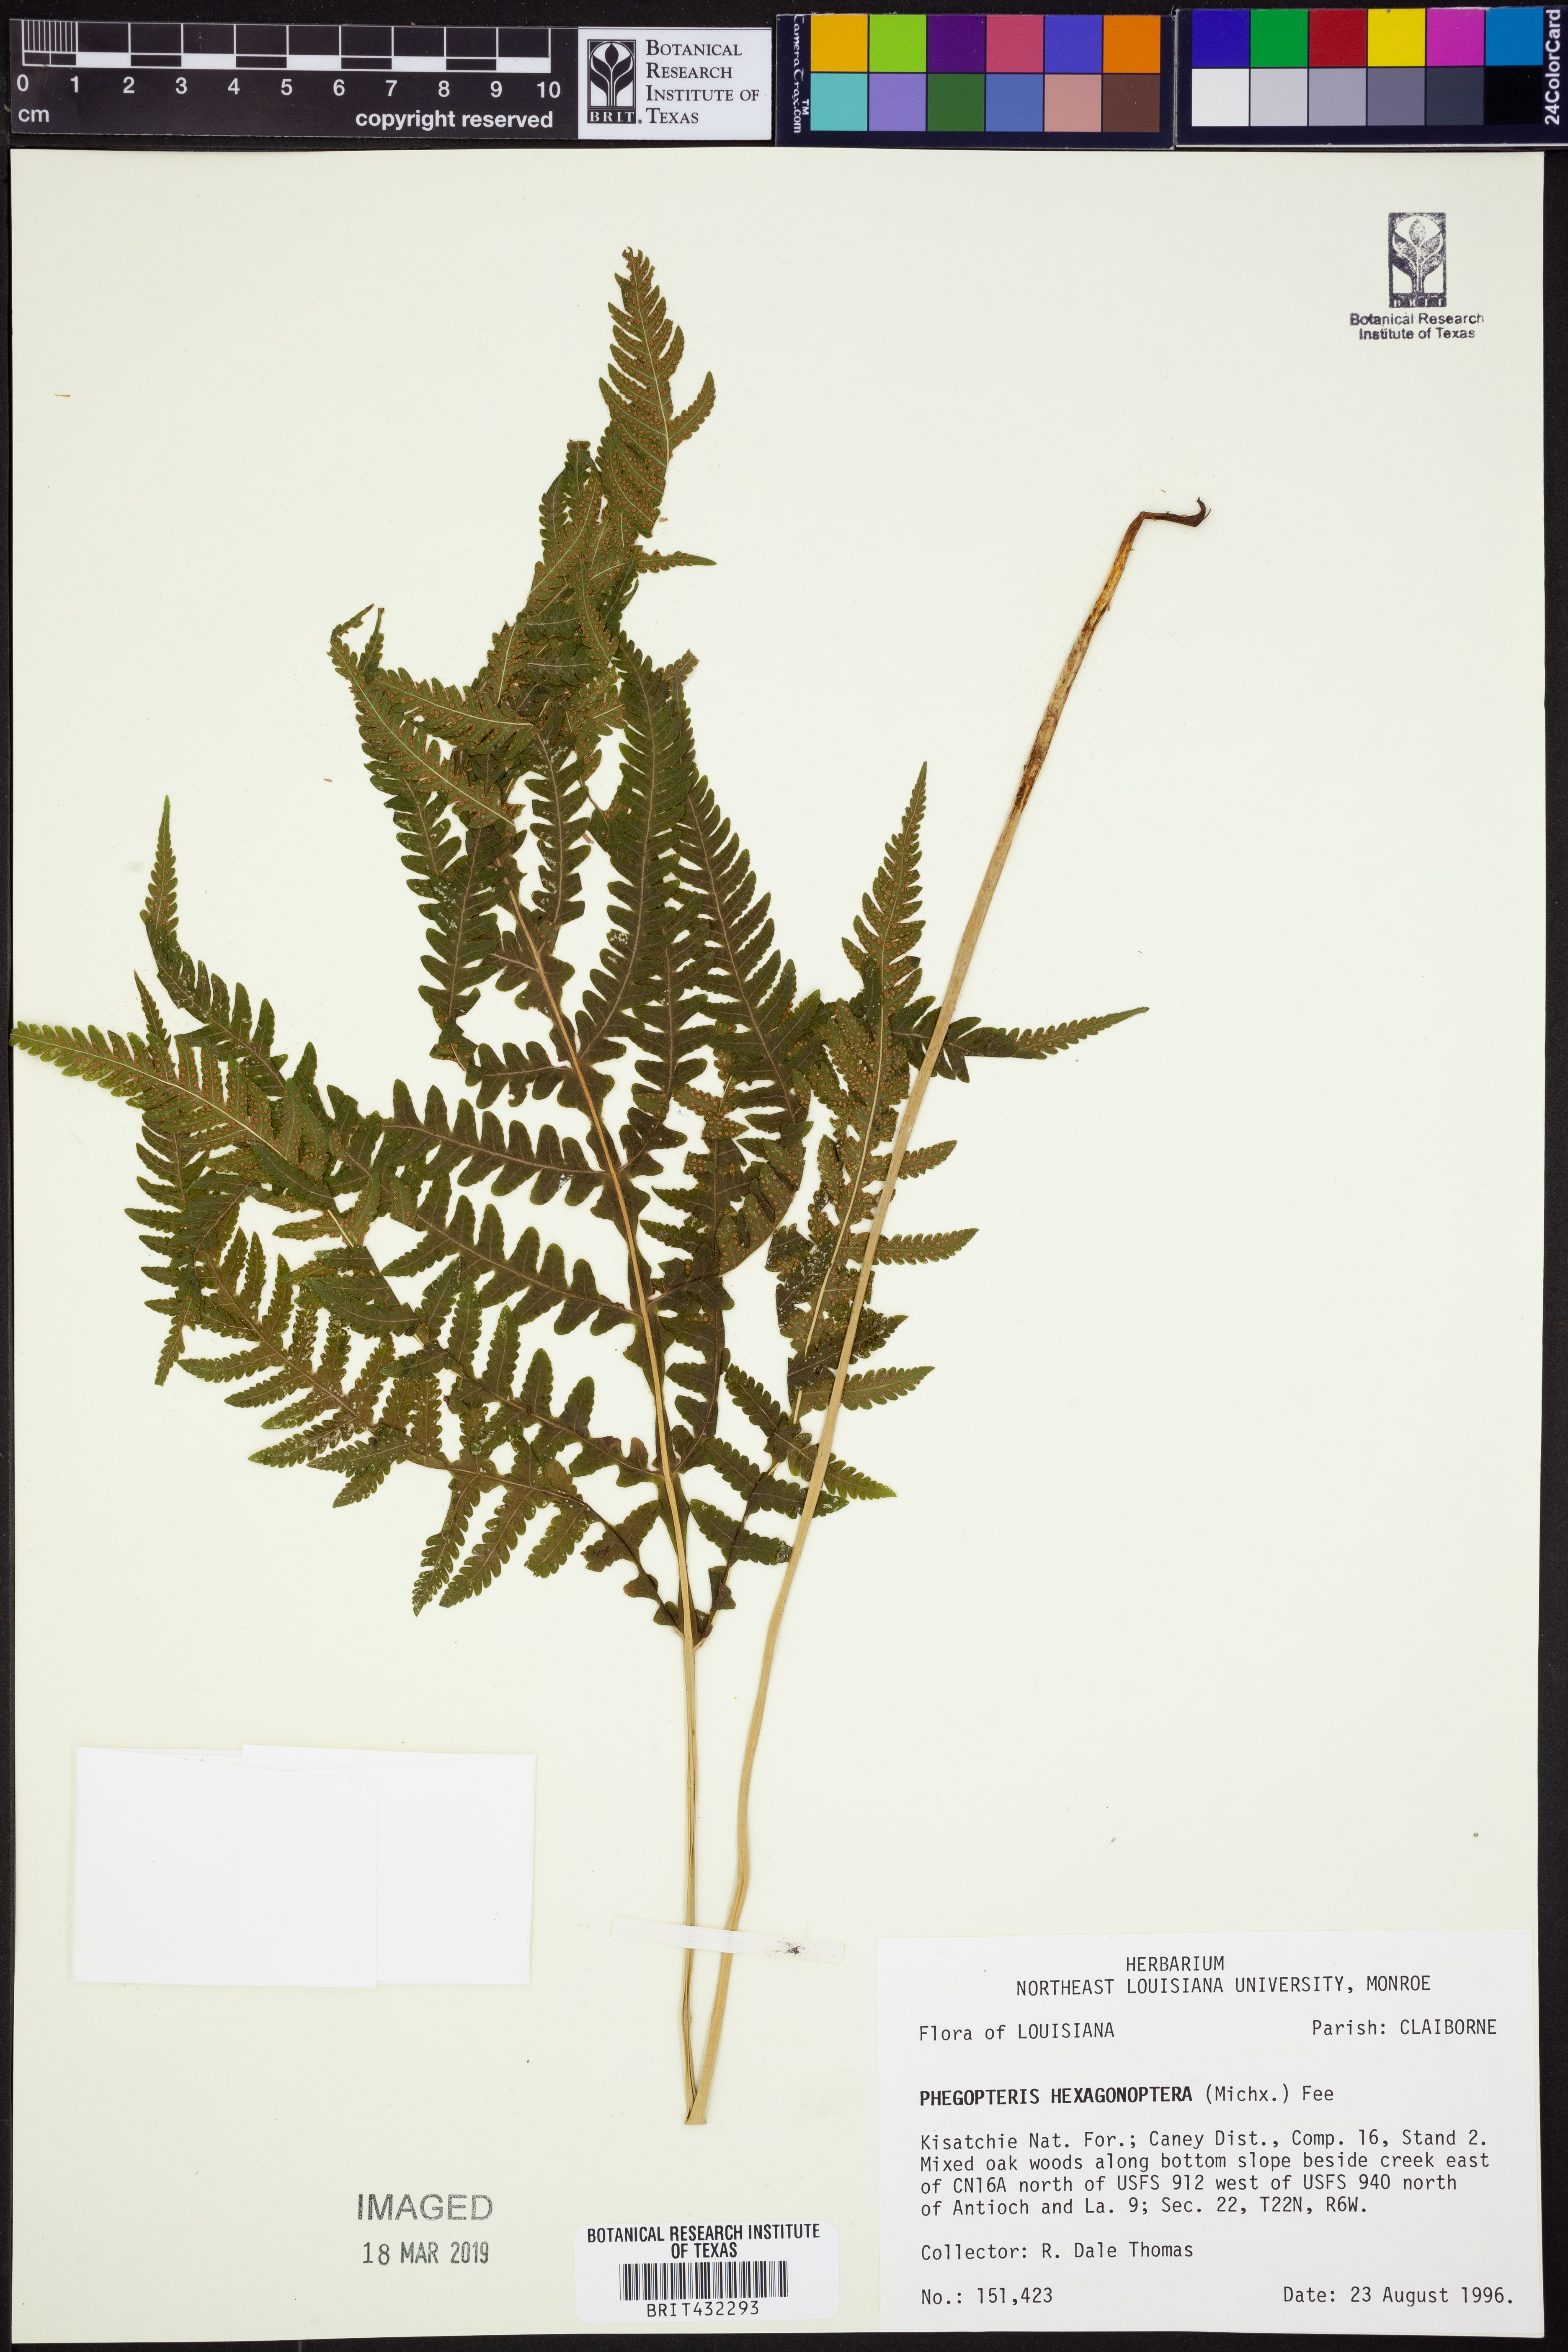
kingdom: Plantae
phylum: Tracheophyta
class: Polypodiopsida
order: Polypodiales
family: Thelypteridaceae
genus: Phegopteris
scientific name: Phegopteris hexagonoptera
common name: Broad beech fern
